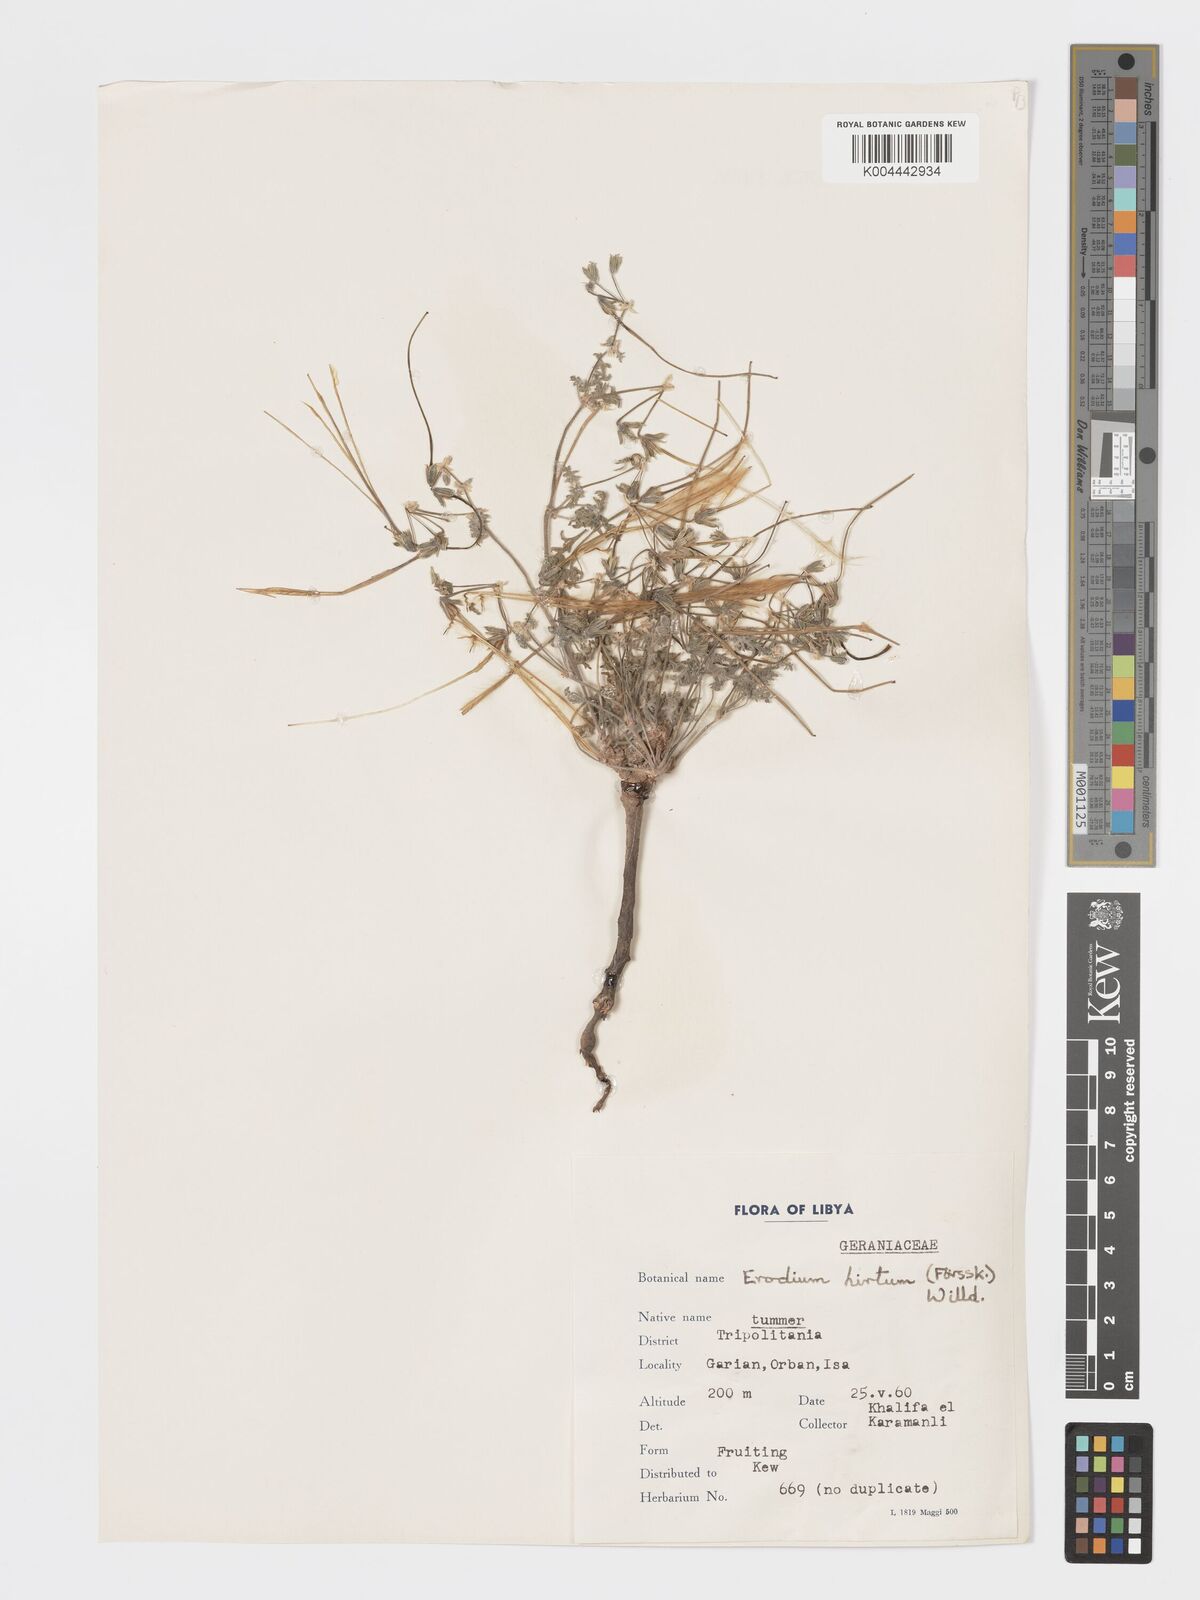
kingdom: Plantae
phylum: Tracheophyta
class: Magnoliopsida
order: Geraniales
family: Geraniaceae
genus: Erodium
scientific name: Erodium crassifolium
